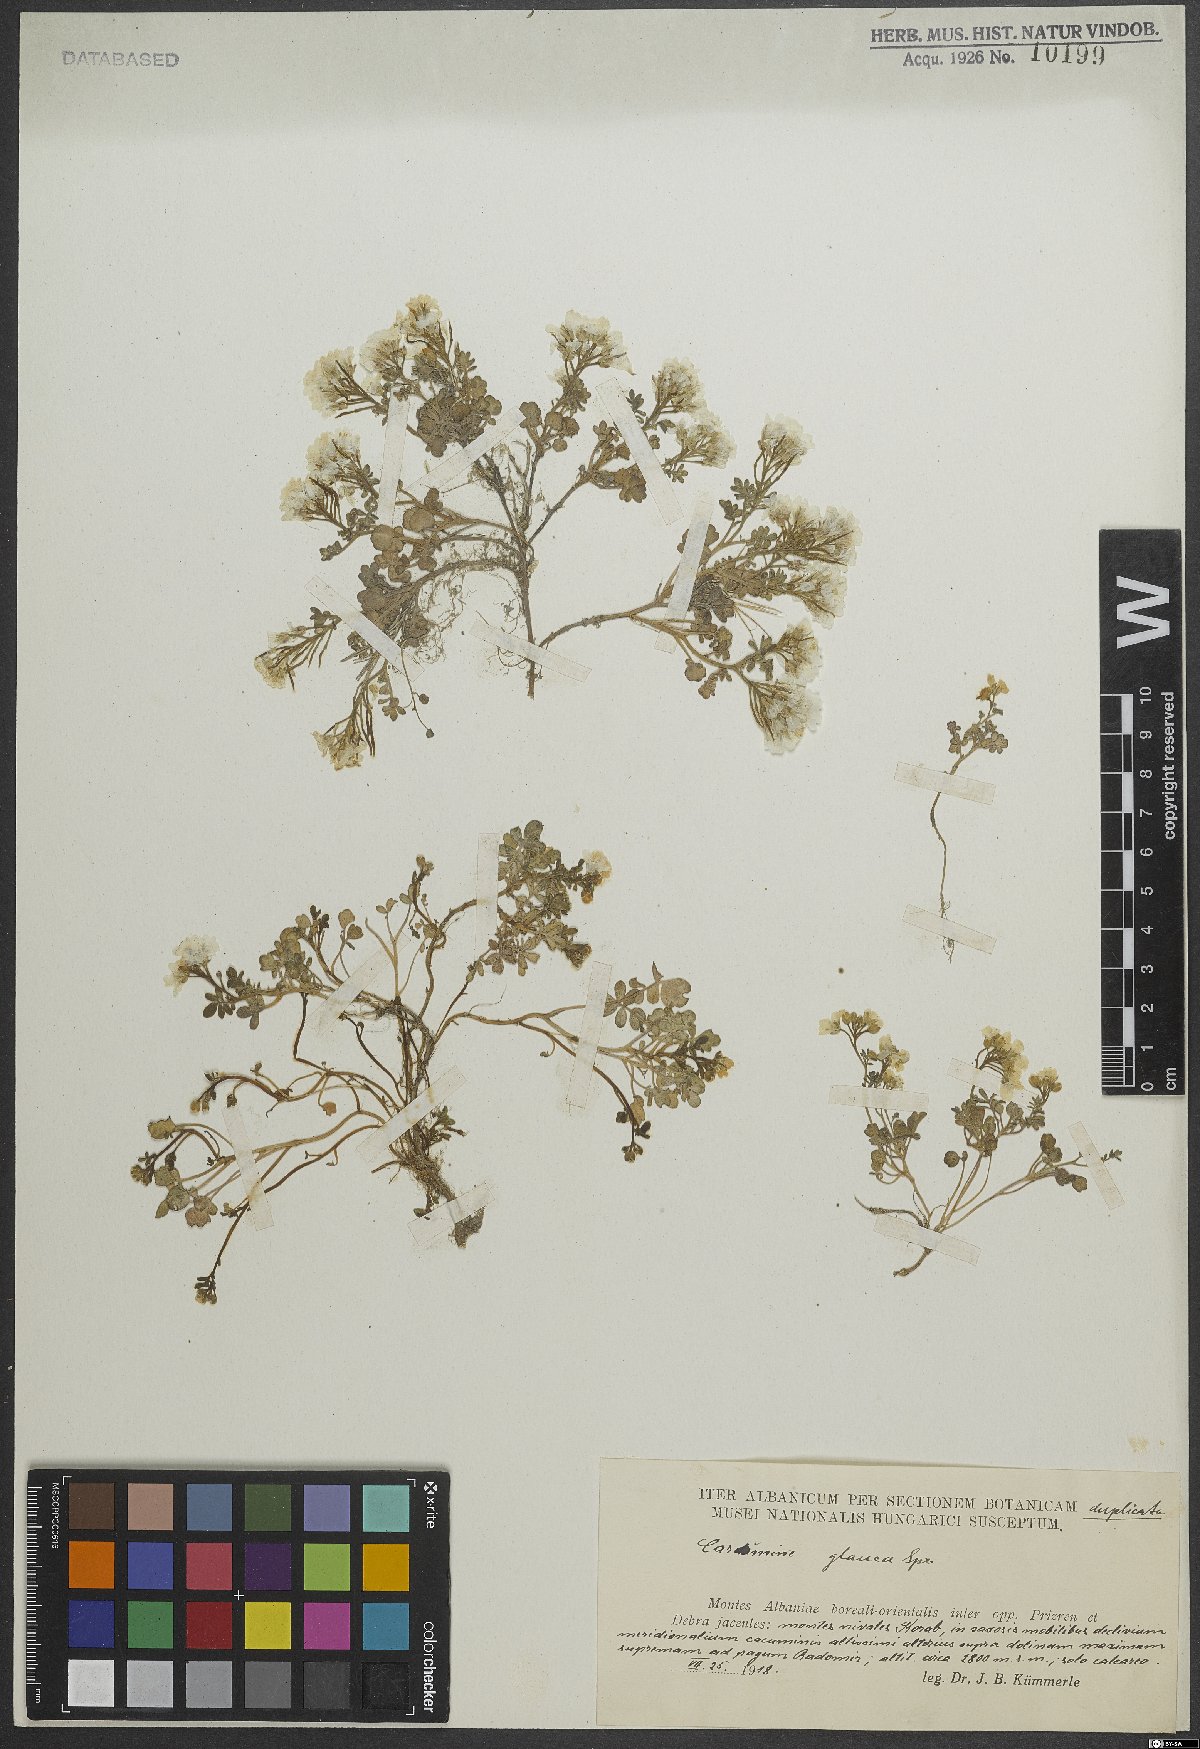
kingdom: Plantae
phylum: Tracheophyta
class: Magnoliopsida
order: Brassicales
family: Brassicaceae
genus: Cardamine
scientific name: Cardamine glauca
